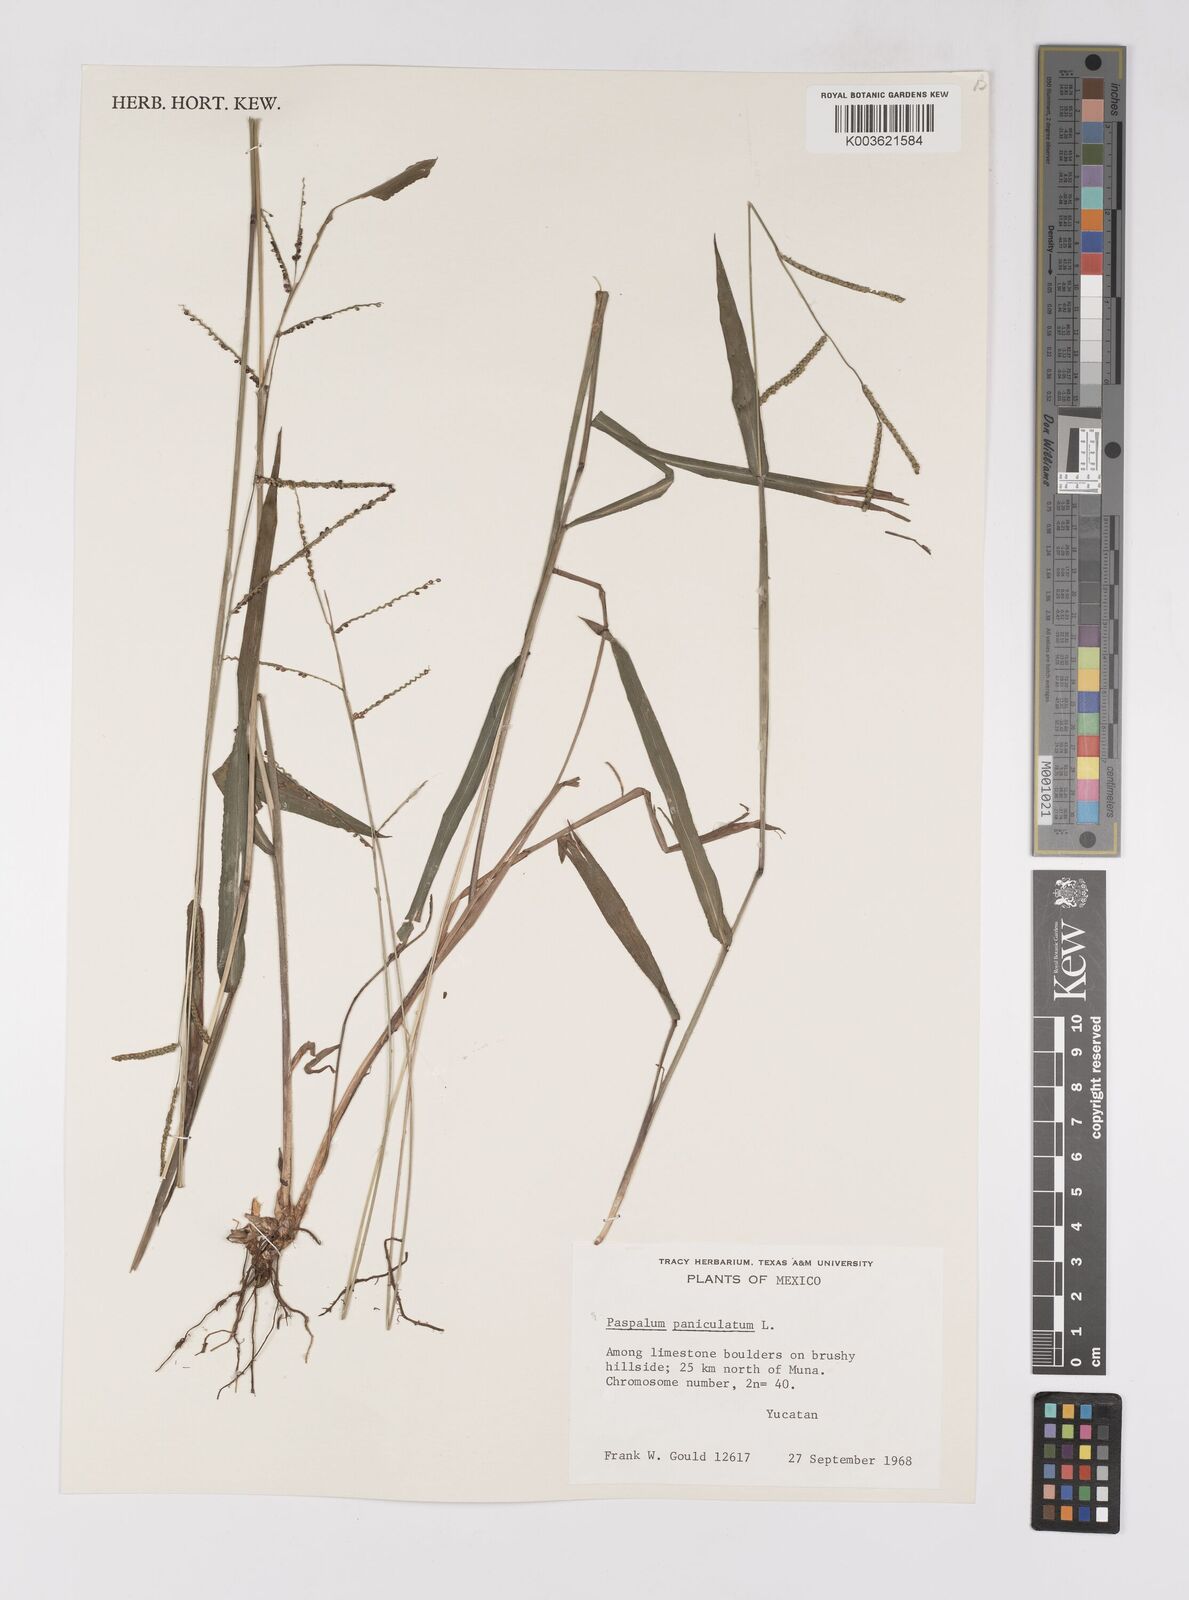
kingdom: Plantae
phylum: Tracheophyta
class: Liliopsida
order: Poales
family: Poaceae
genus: Paspalum
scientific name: Paspalum paniculatum
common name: Arrocillo
